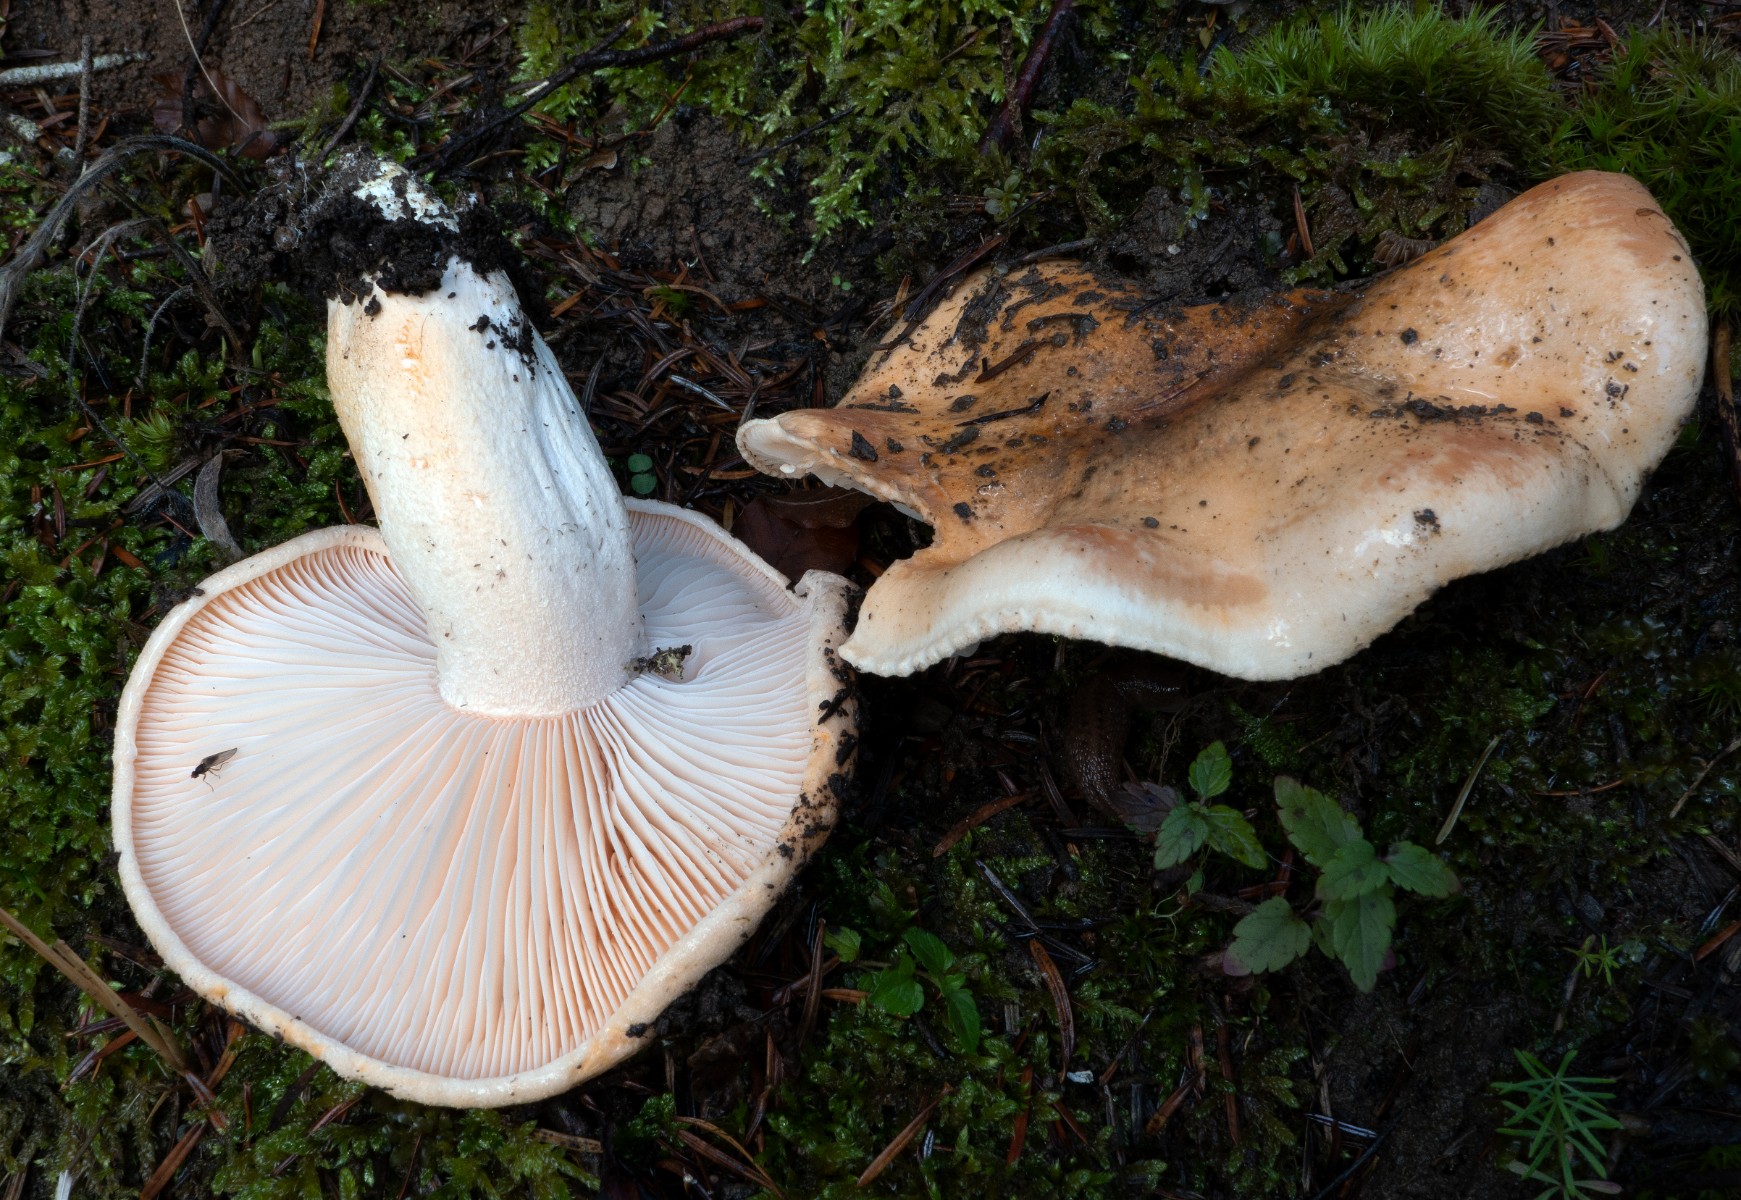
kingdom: Fungi
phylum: Basidiomycota
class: Agaricomycetes
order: Agaricales
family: Hygrophoraceae
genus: Hygrophorus
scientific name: Hygrophorus pudorinus
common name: Rosy woodwax
